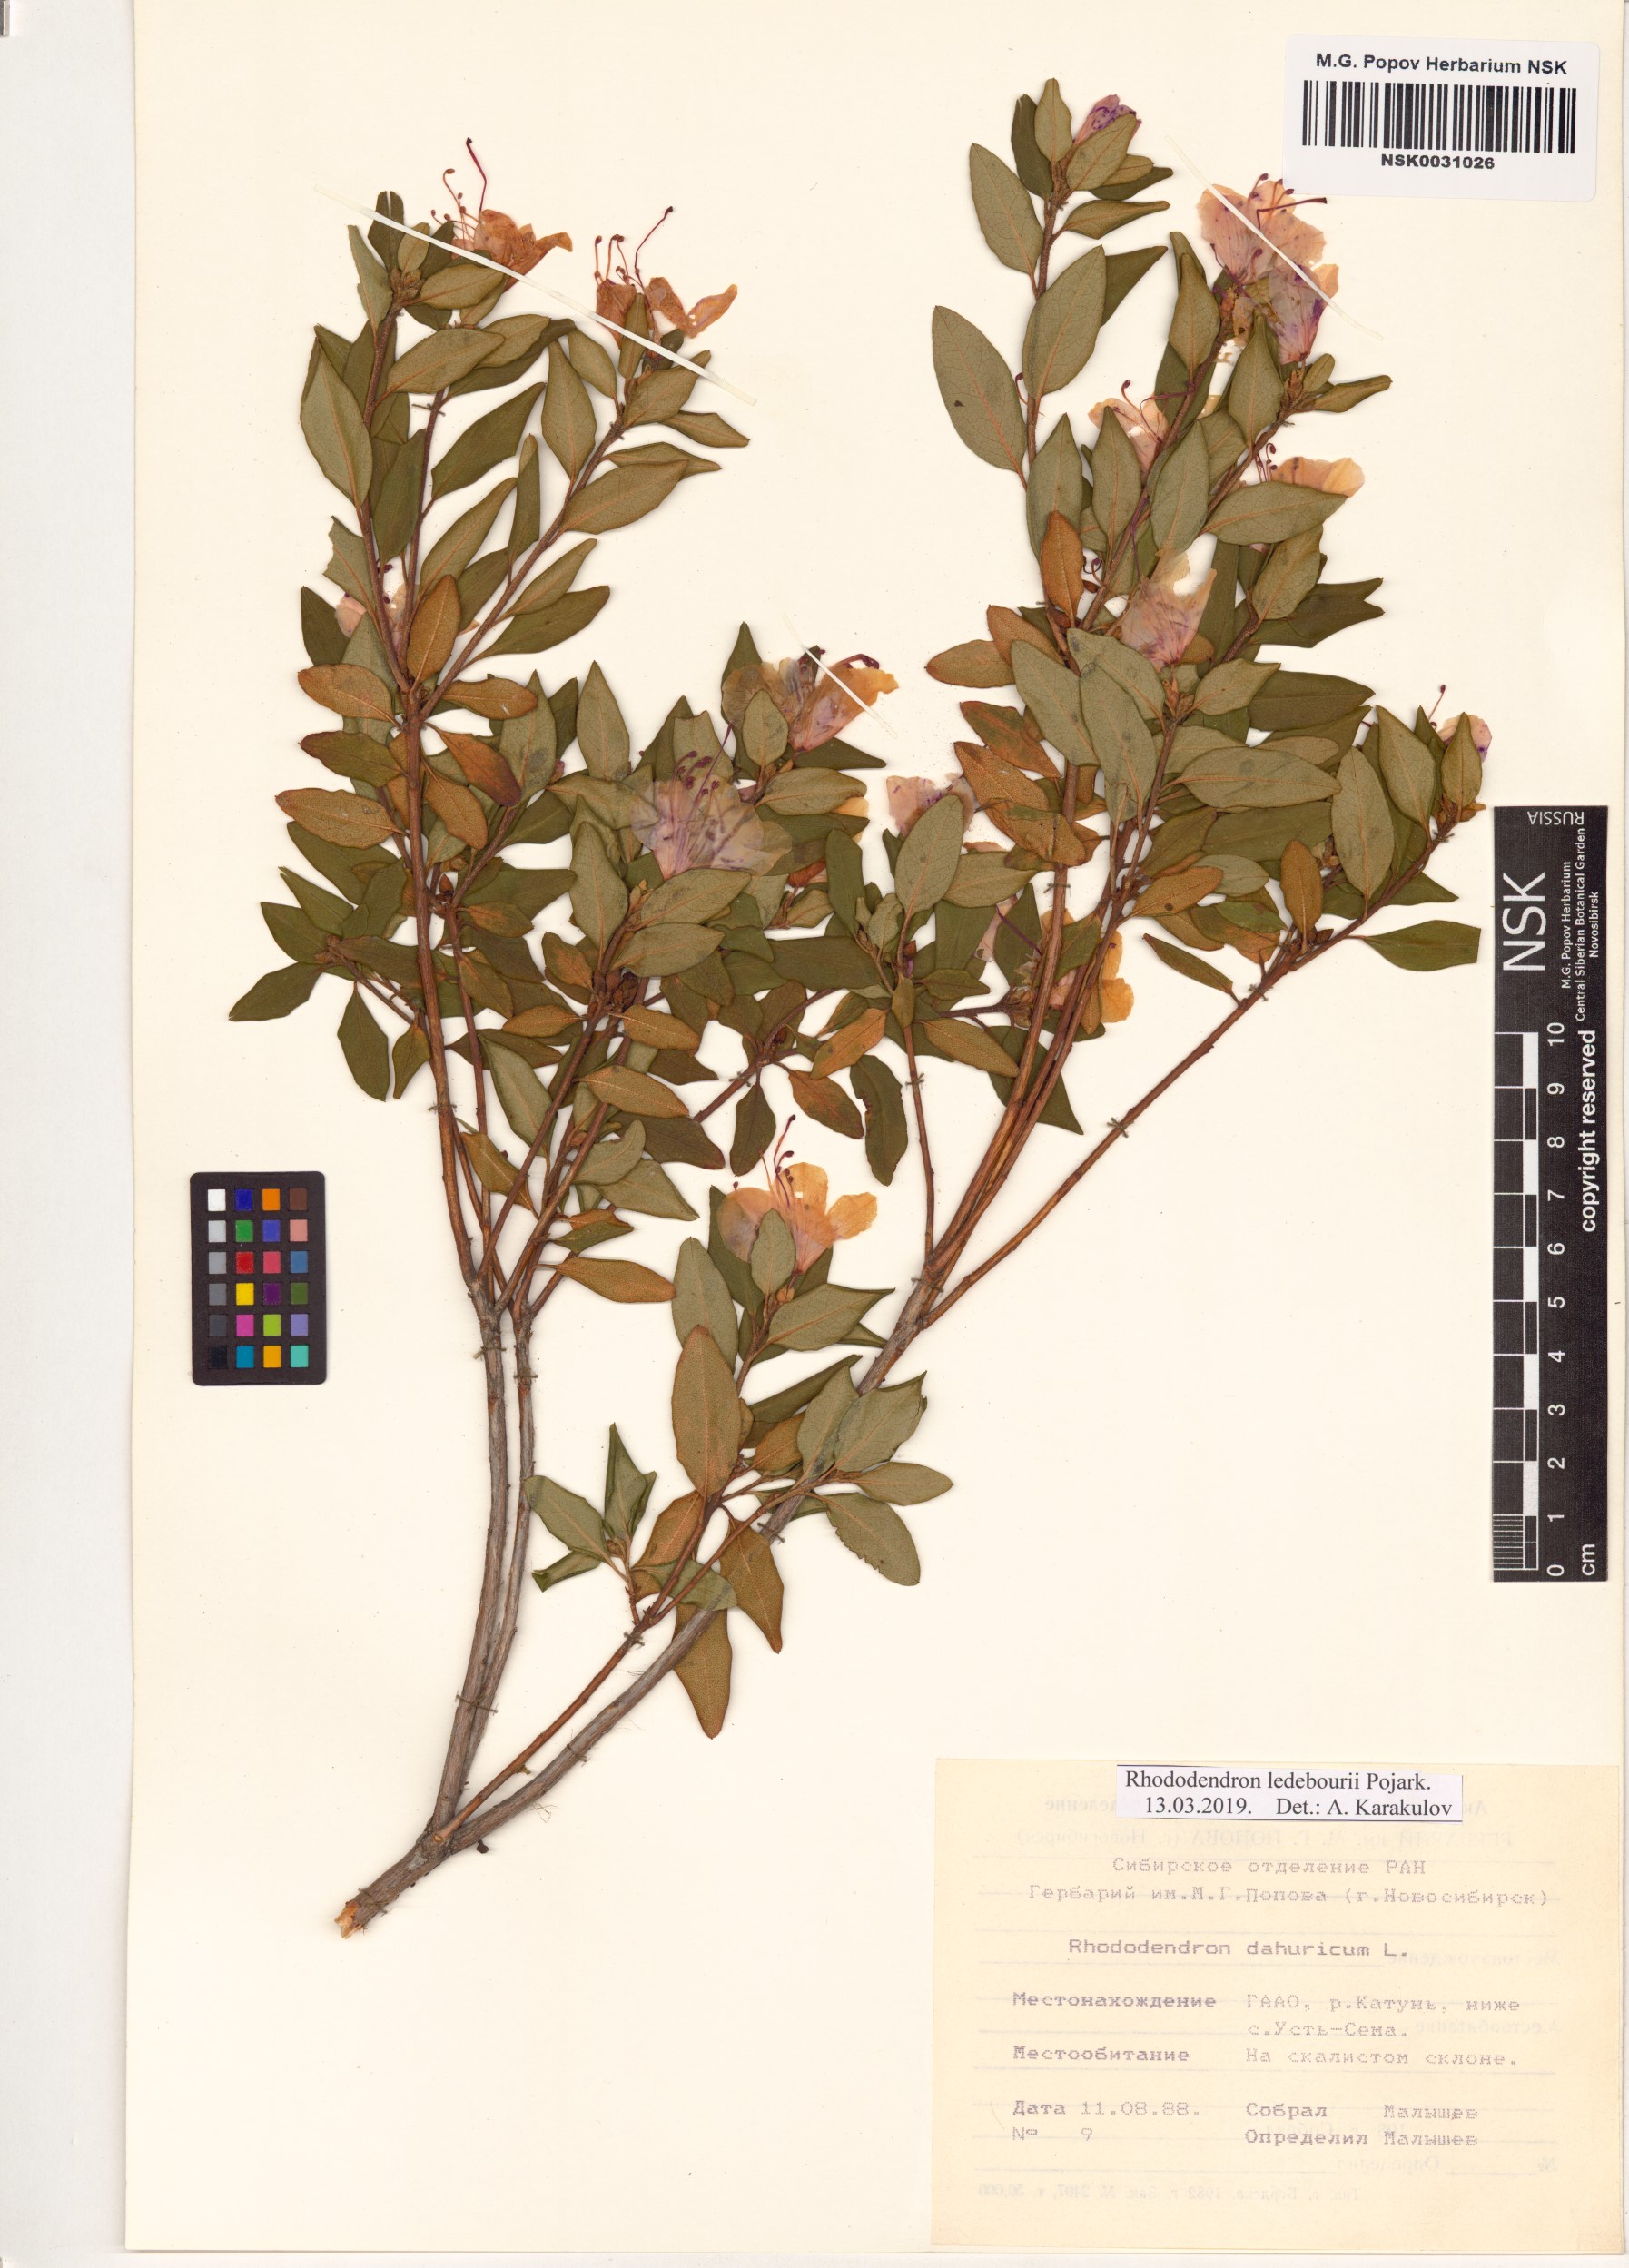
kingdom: Plantae
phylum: Tracheophyta
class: Magnoliopsida
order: Ericales
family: Ericaceae
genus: Rhododendron
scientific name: Rhododendron dauricum
